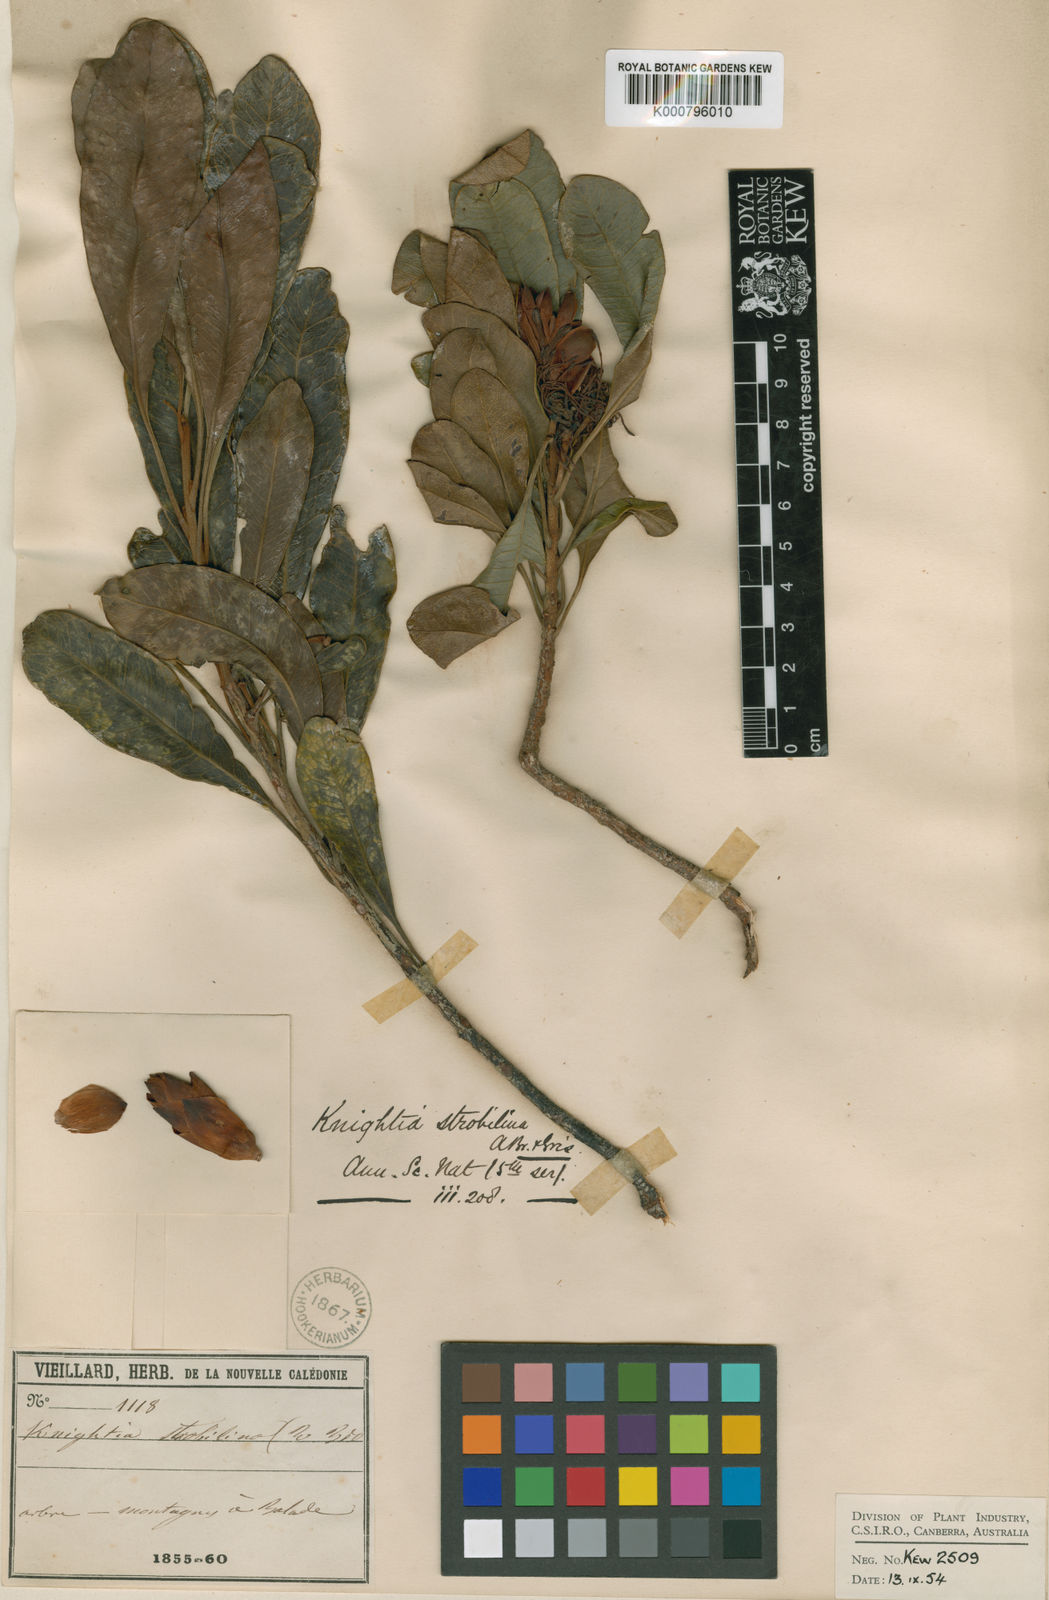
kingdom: Plantae
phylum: Tracheophyta
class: Magnoliopsida
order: Proteales
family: Proteaceae
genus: Knightia
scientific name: Knightia
